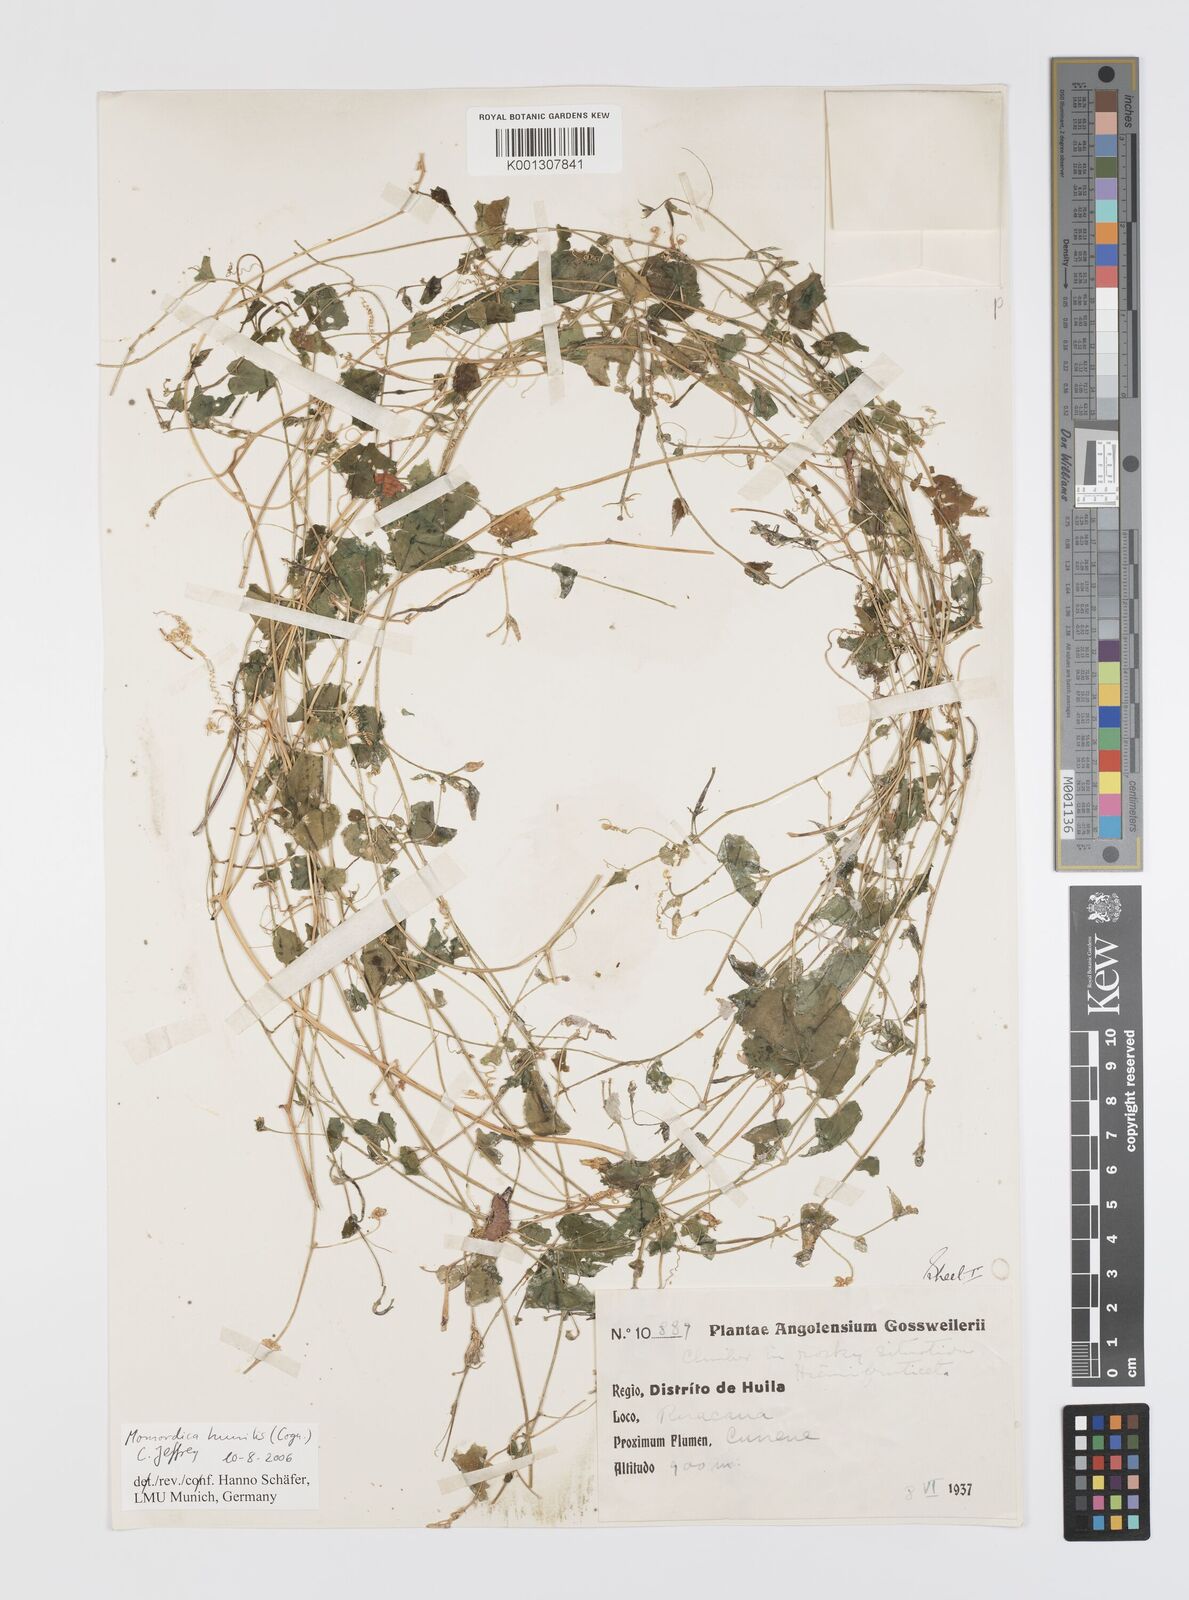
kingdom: Plantae
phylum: Tracheophyta
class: Magnoliopsida
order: Cucurbitales
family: Cucurbitaceae
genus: Momordica
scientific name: Momordica humilis
